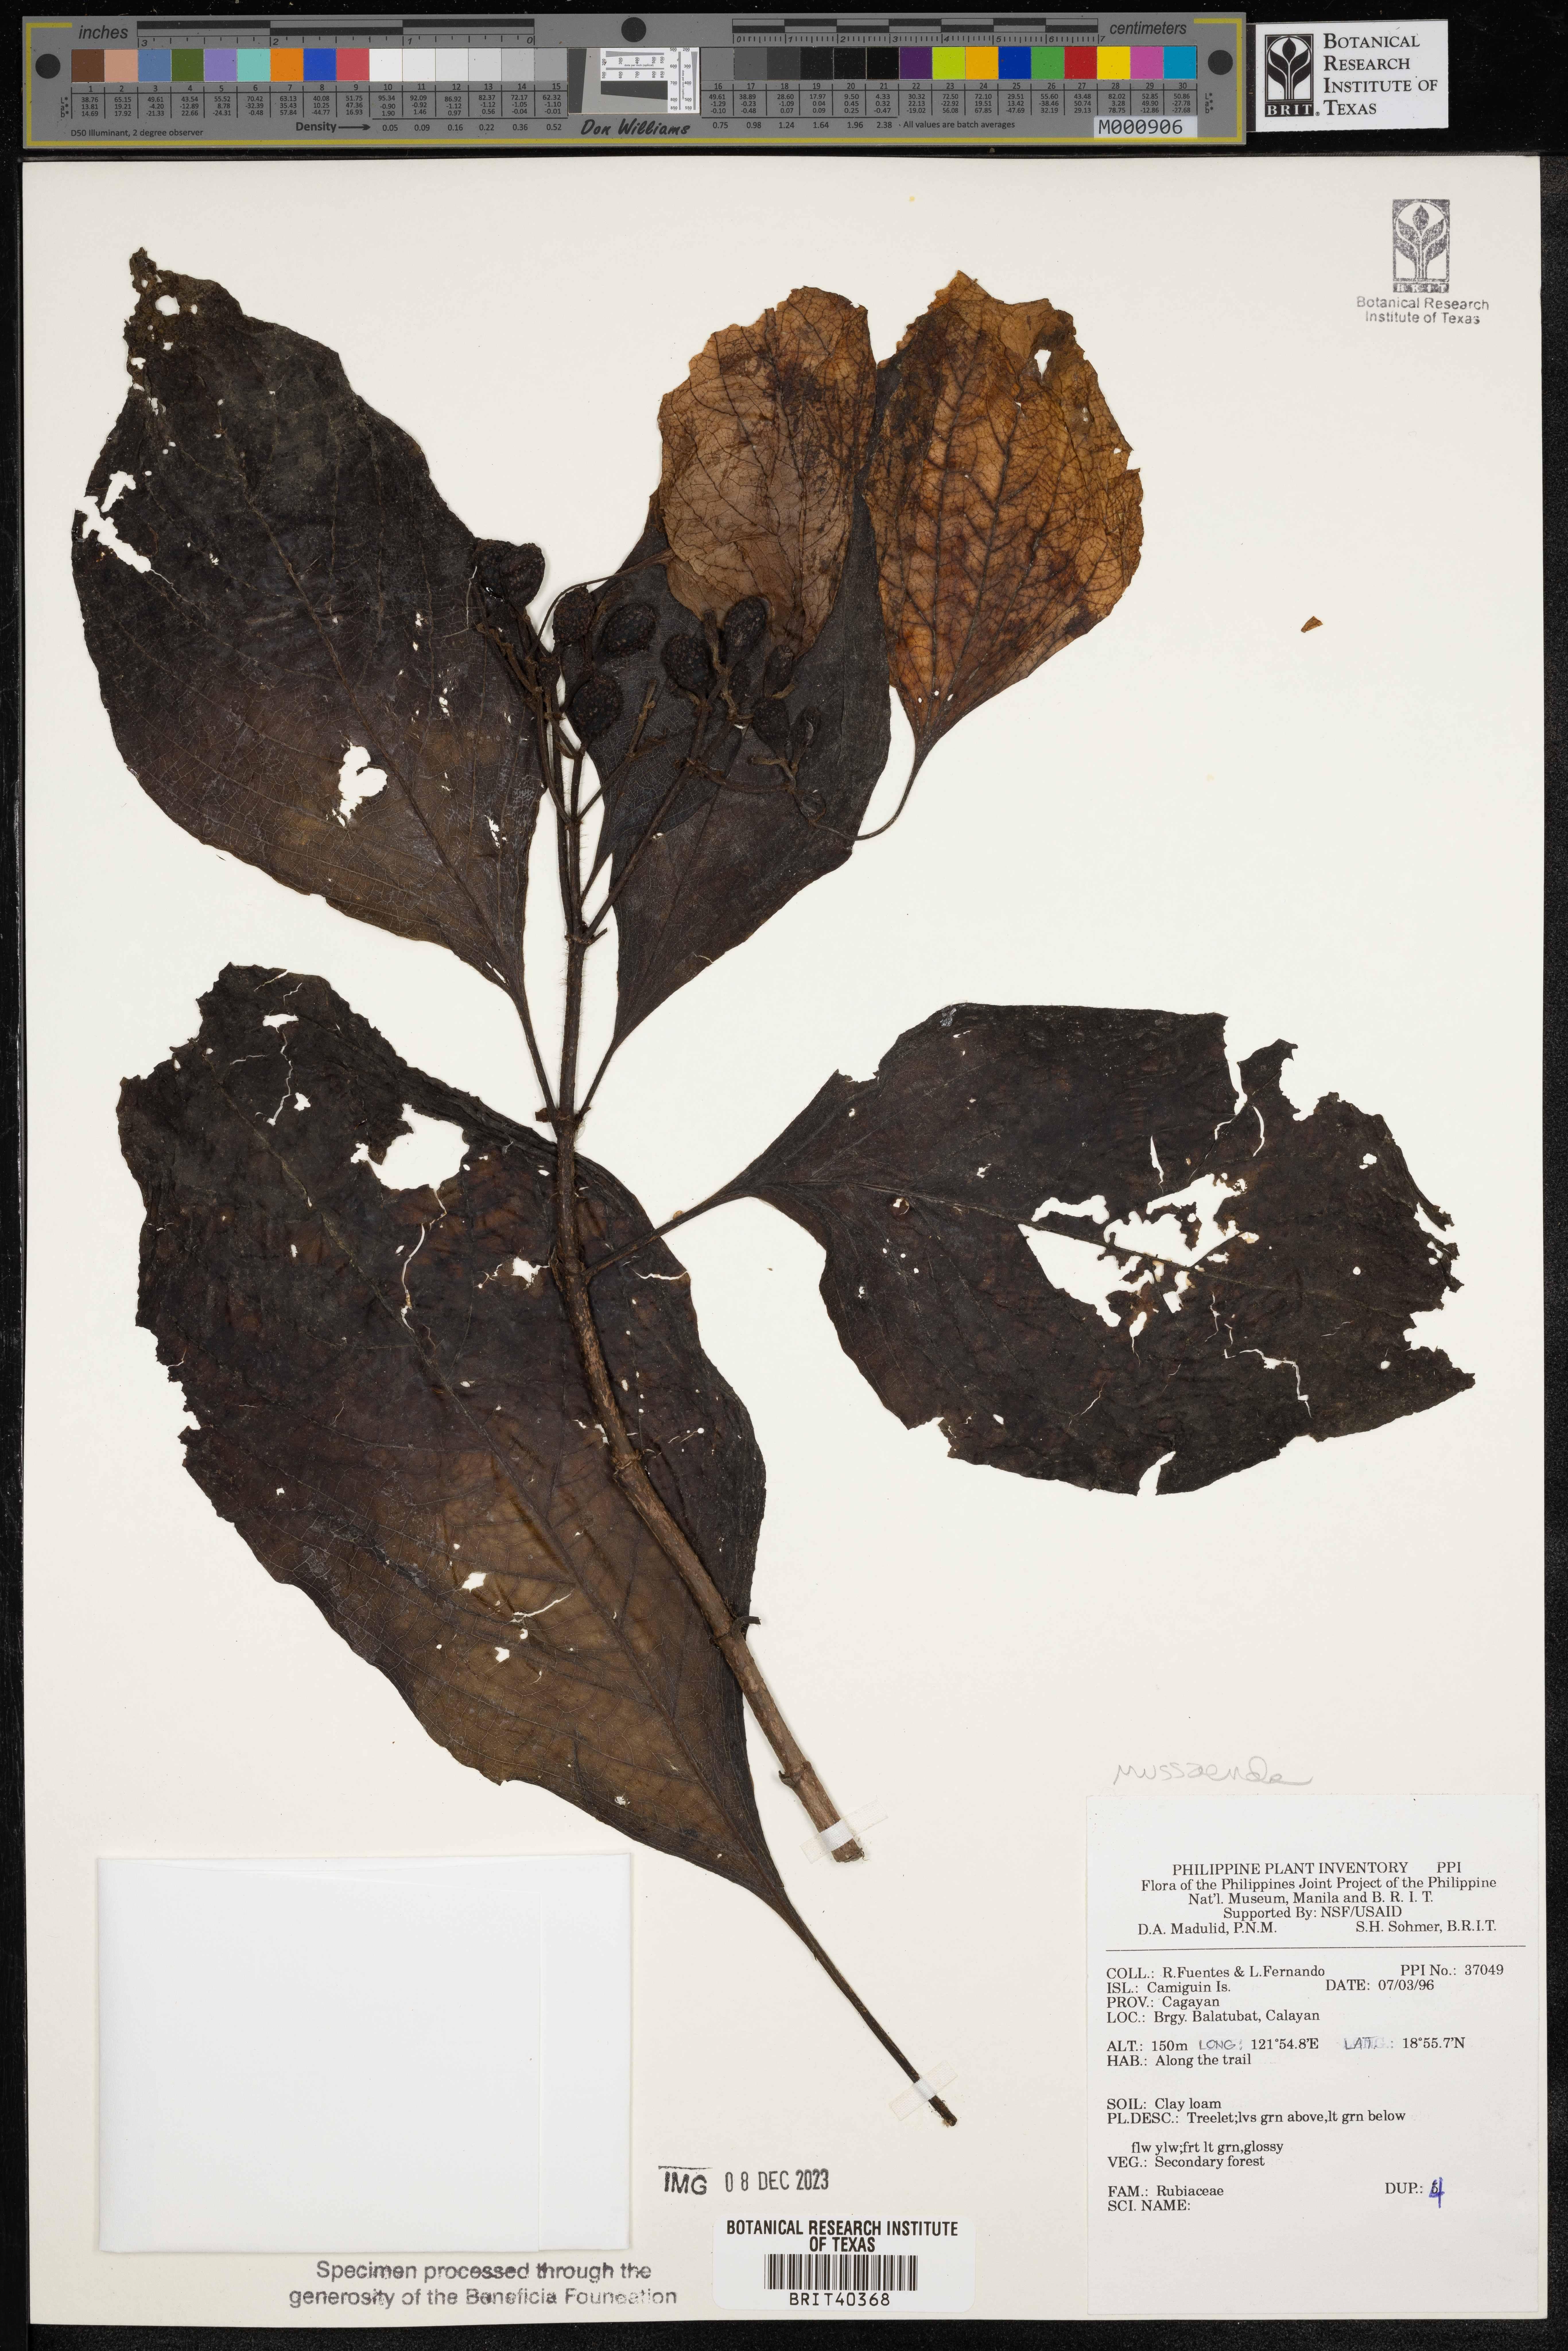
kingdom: Plantae
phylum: Tracheophyta
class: Magnoliopsida
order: Gentianales
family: Rubiaceae
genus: Mussaenda
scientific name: Mussaenda
